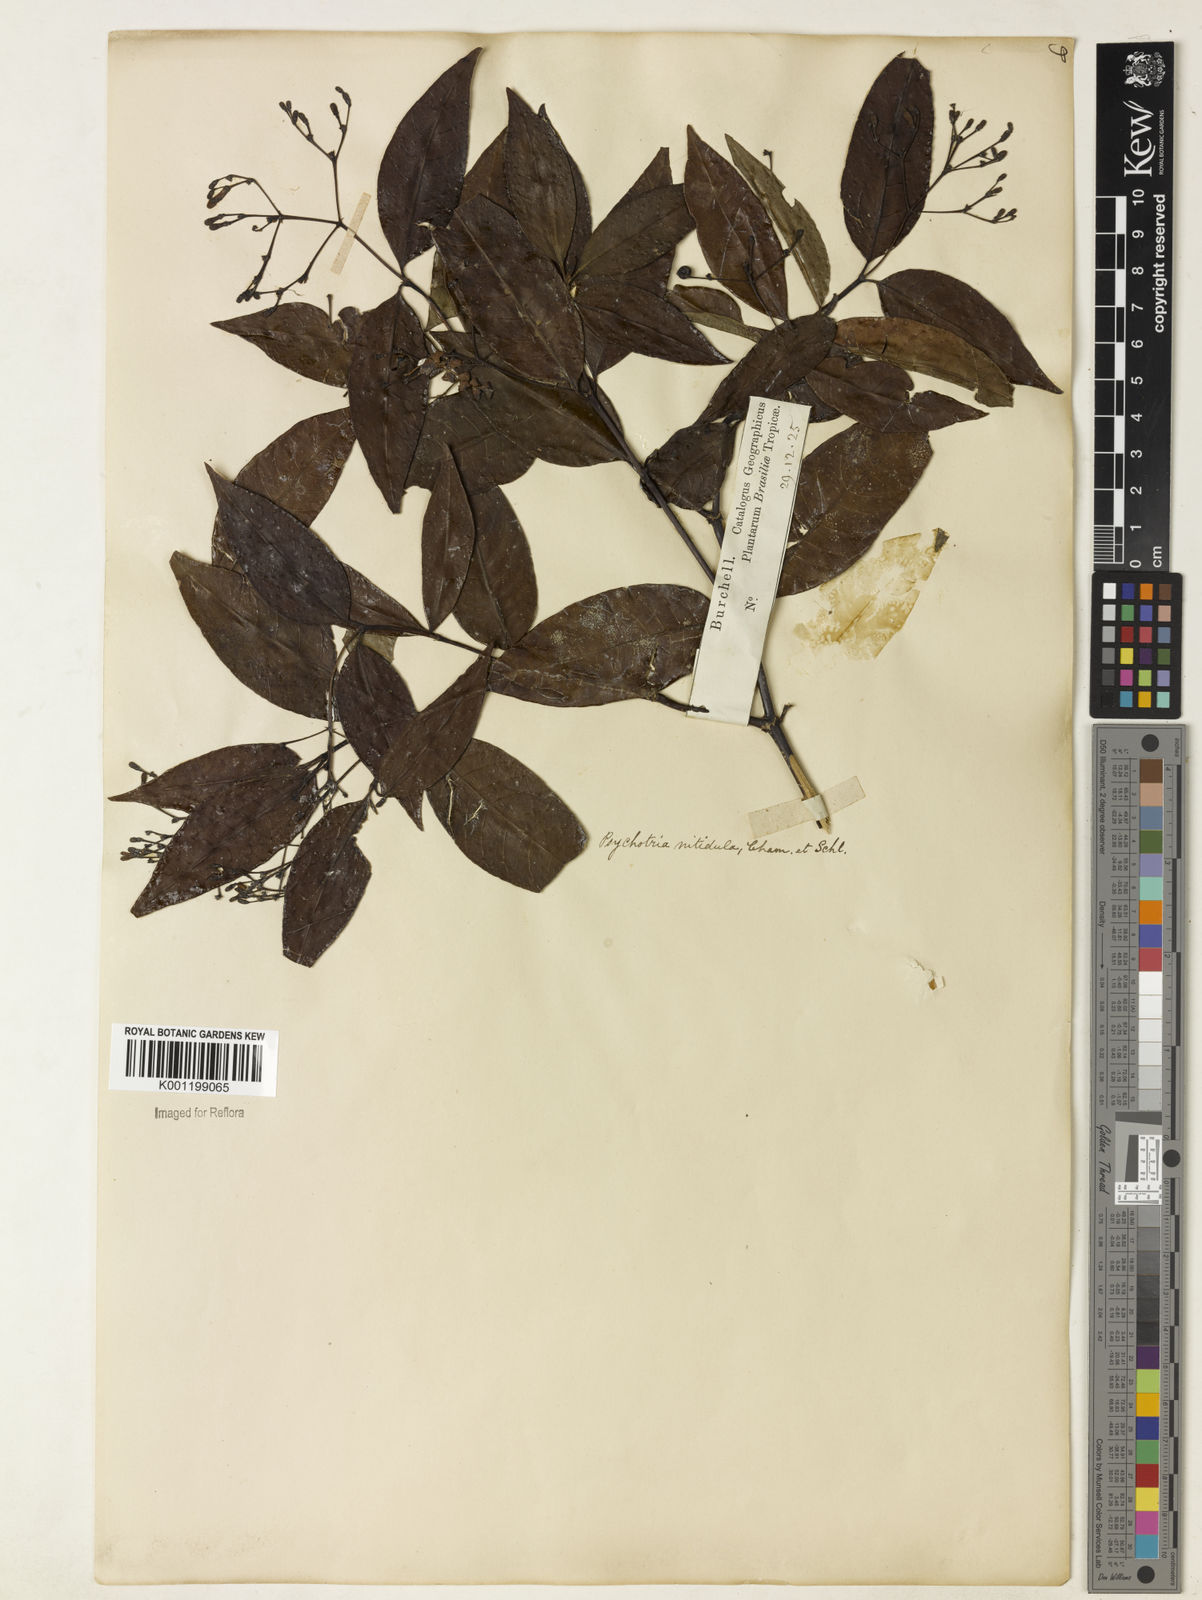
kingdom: Plantae
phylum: Tracheophyta
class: Magnoliopsida
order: Gentianales
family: Rubiaceae
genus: Psychotria
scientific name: Psychotria leiocarpa
